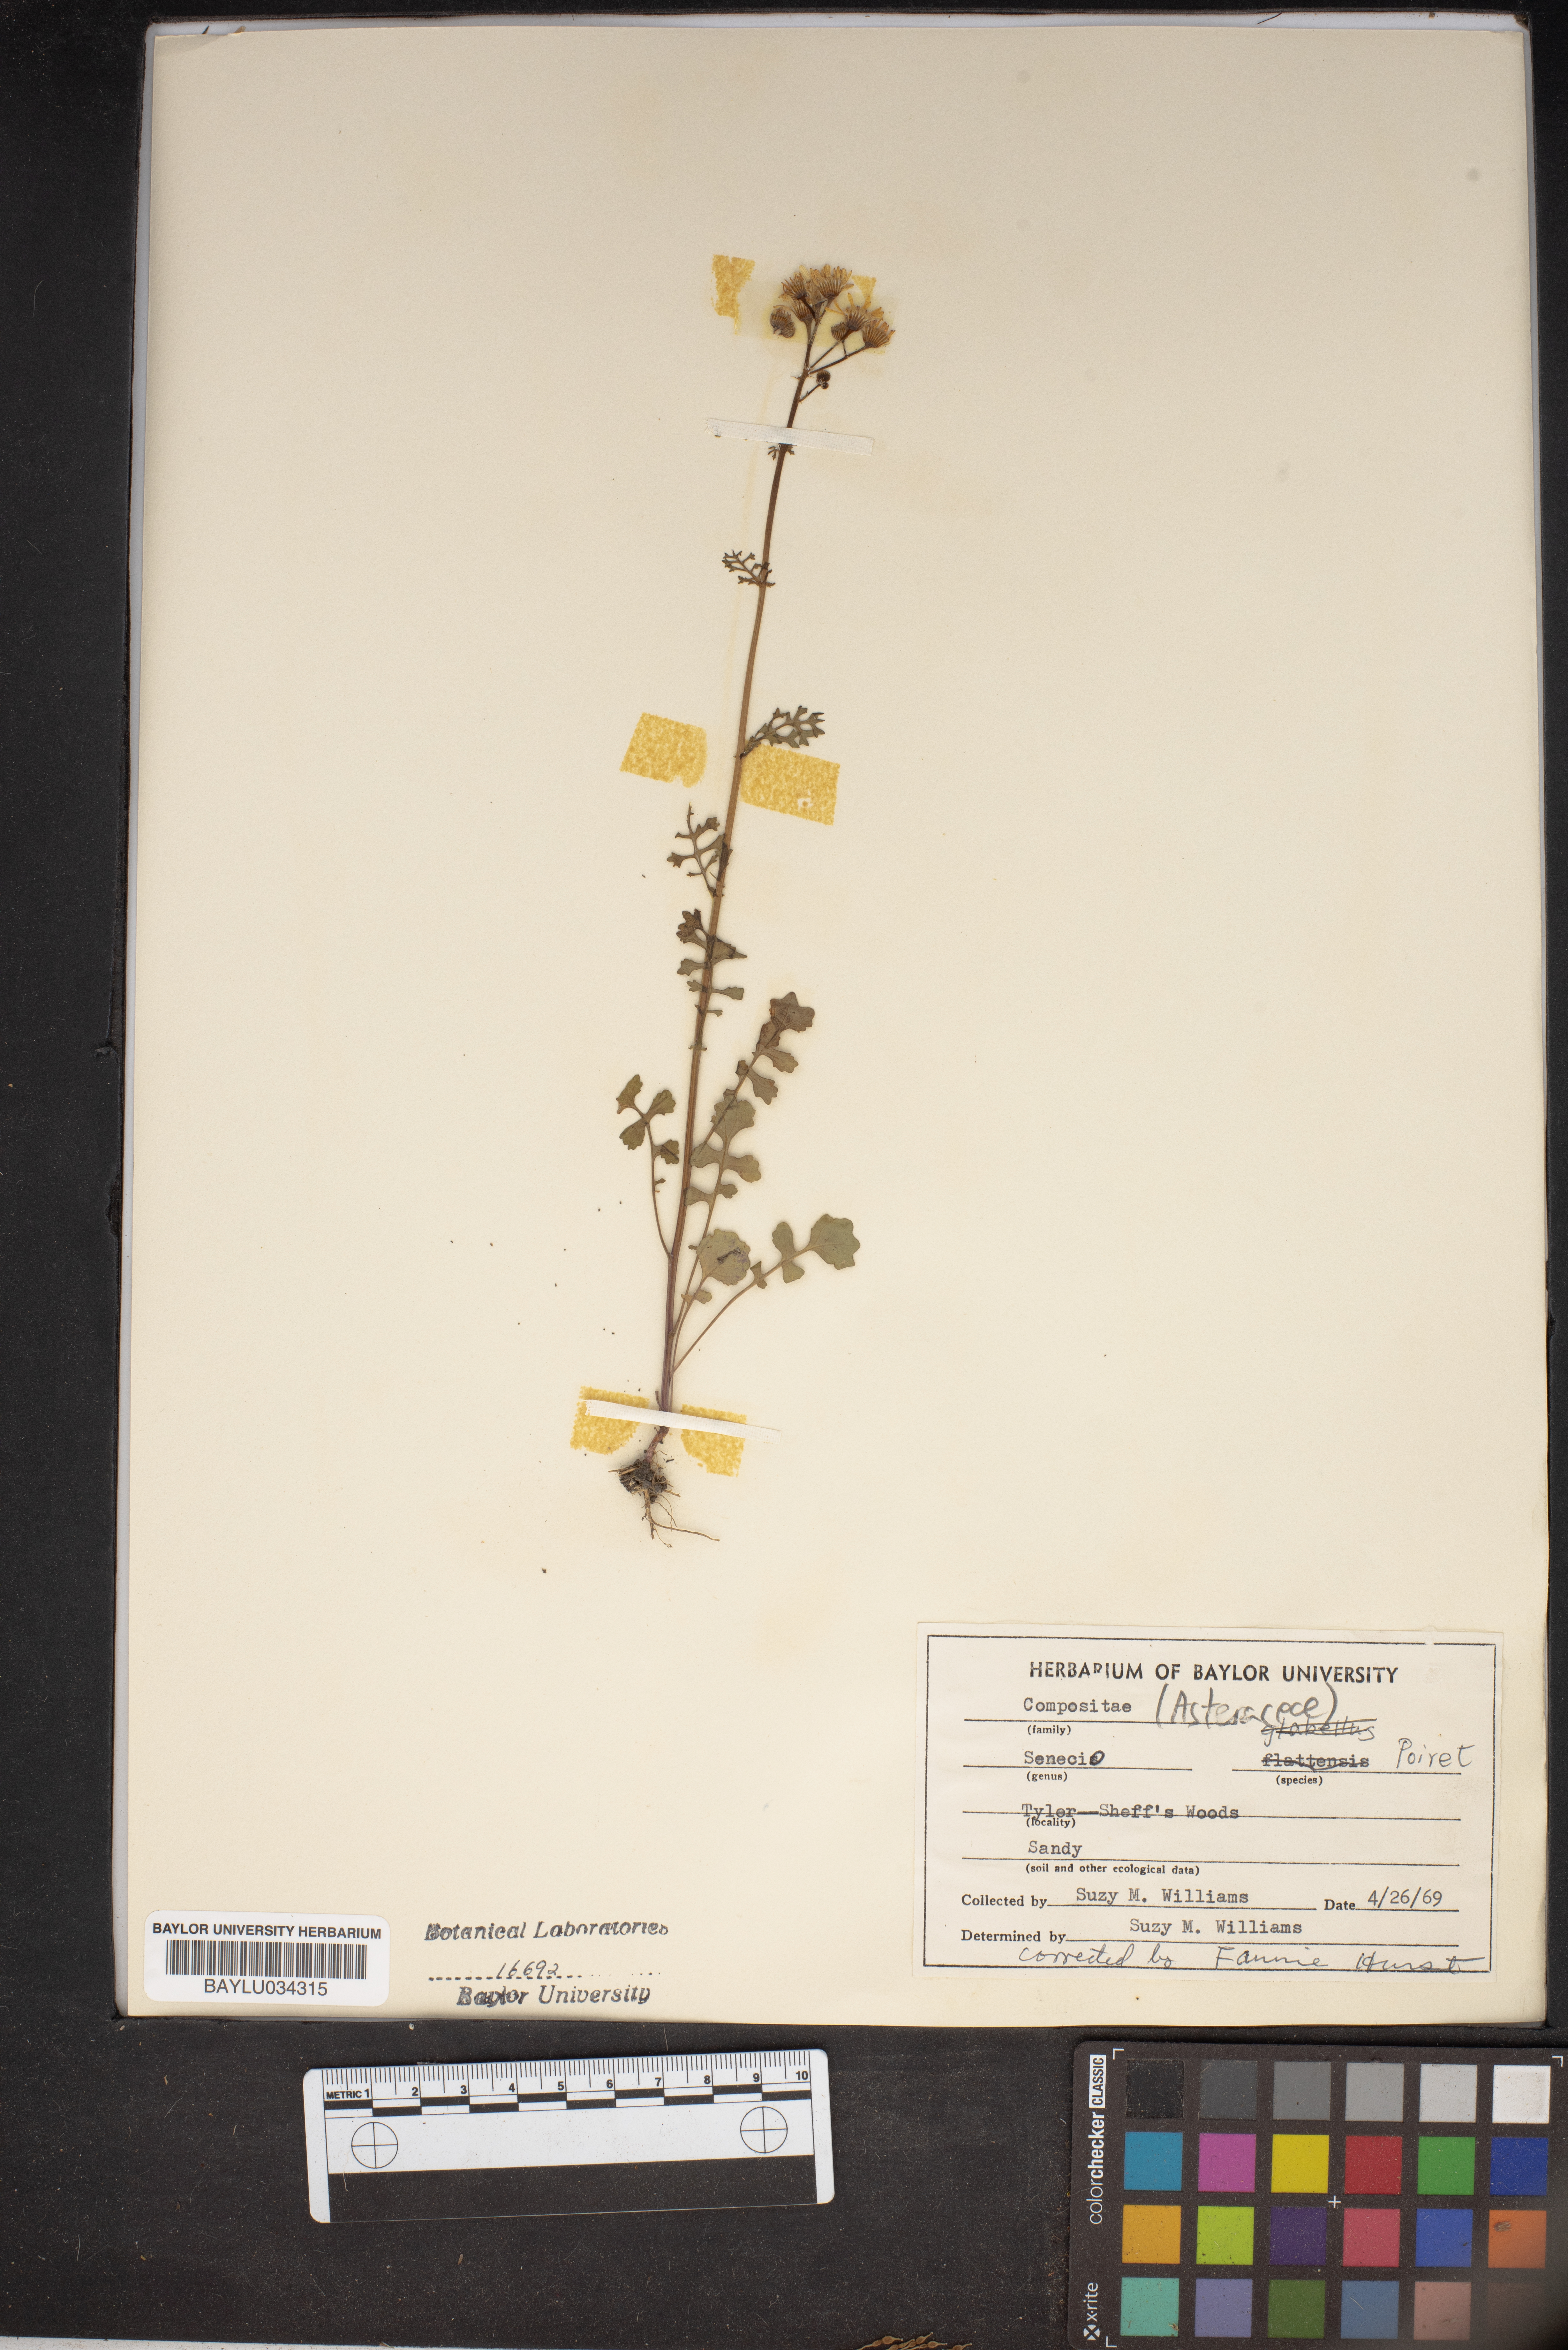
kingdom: Plantae
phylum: Tracheophyta
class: Magnoliopsida
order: Asterales
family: Asteraceae
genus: Senecio
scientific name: Senecio
